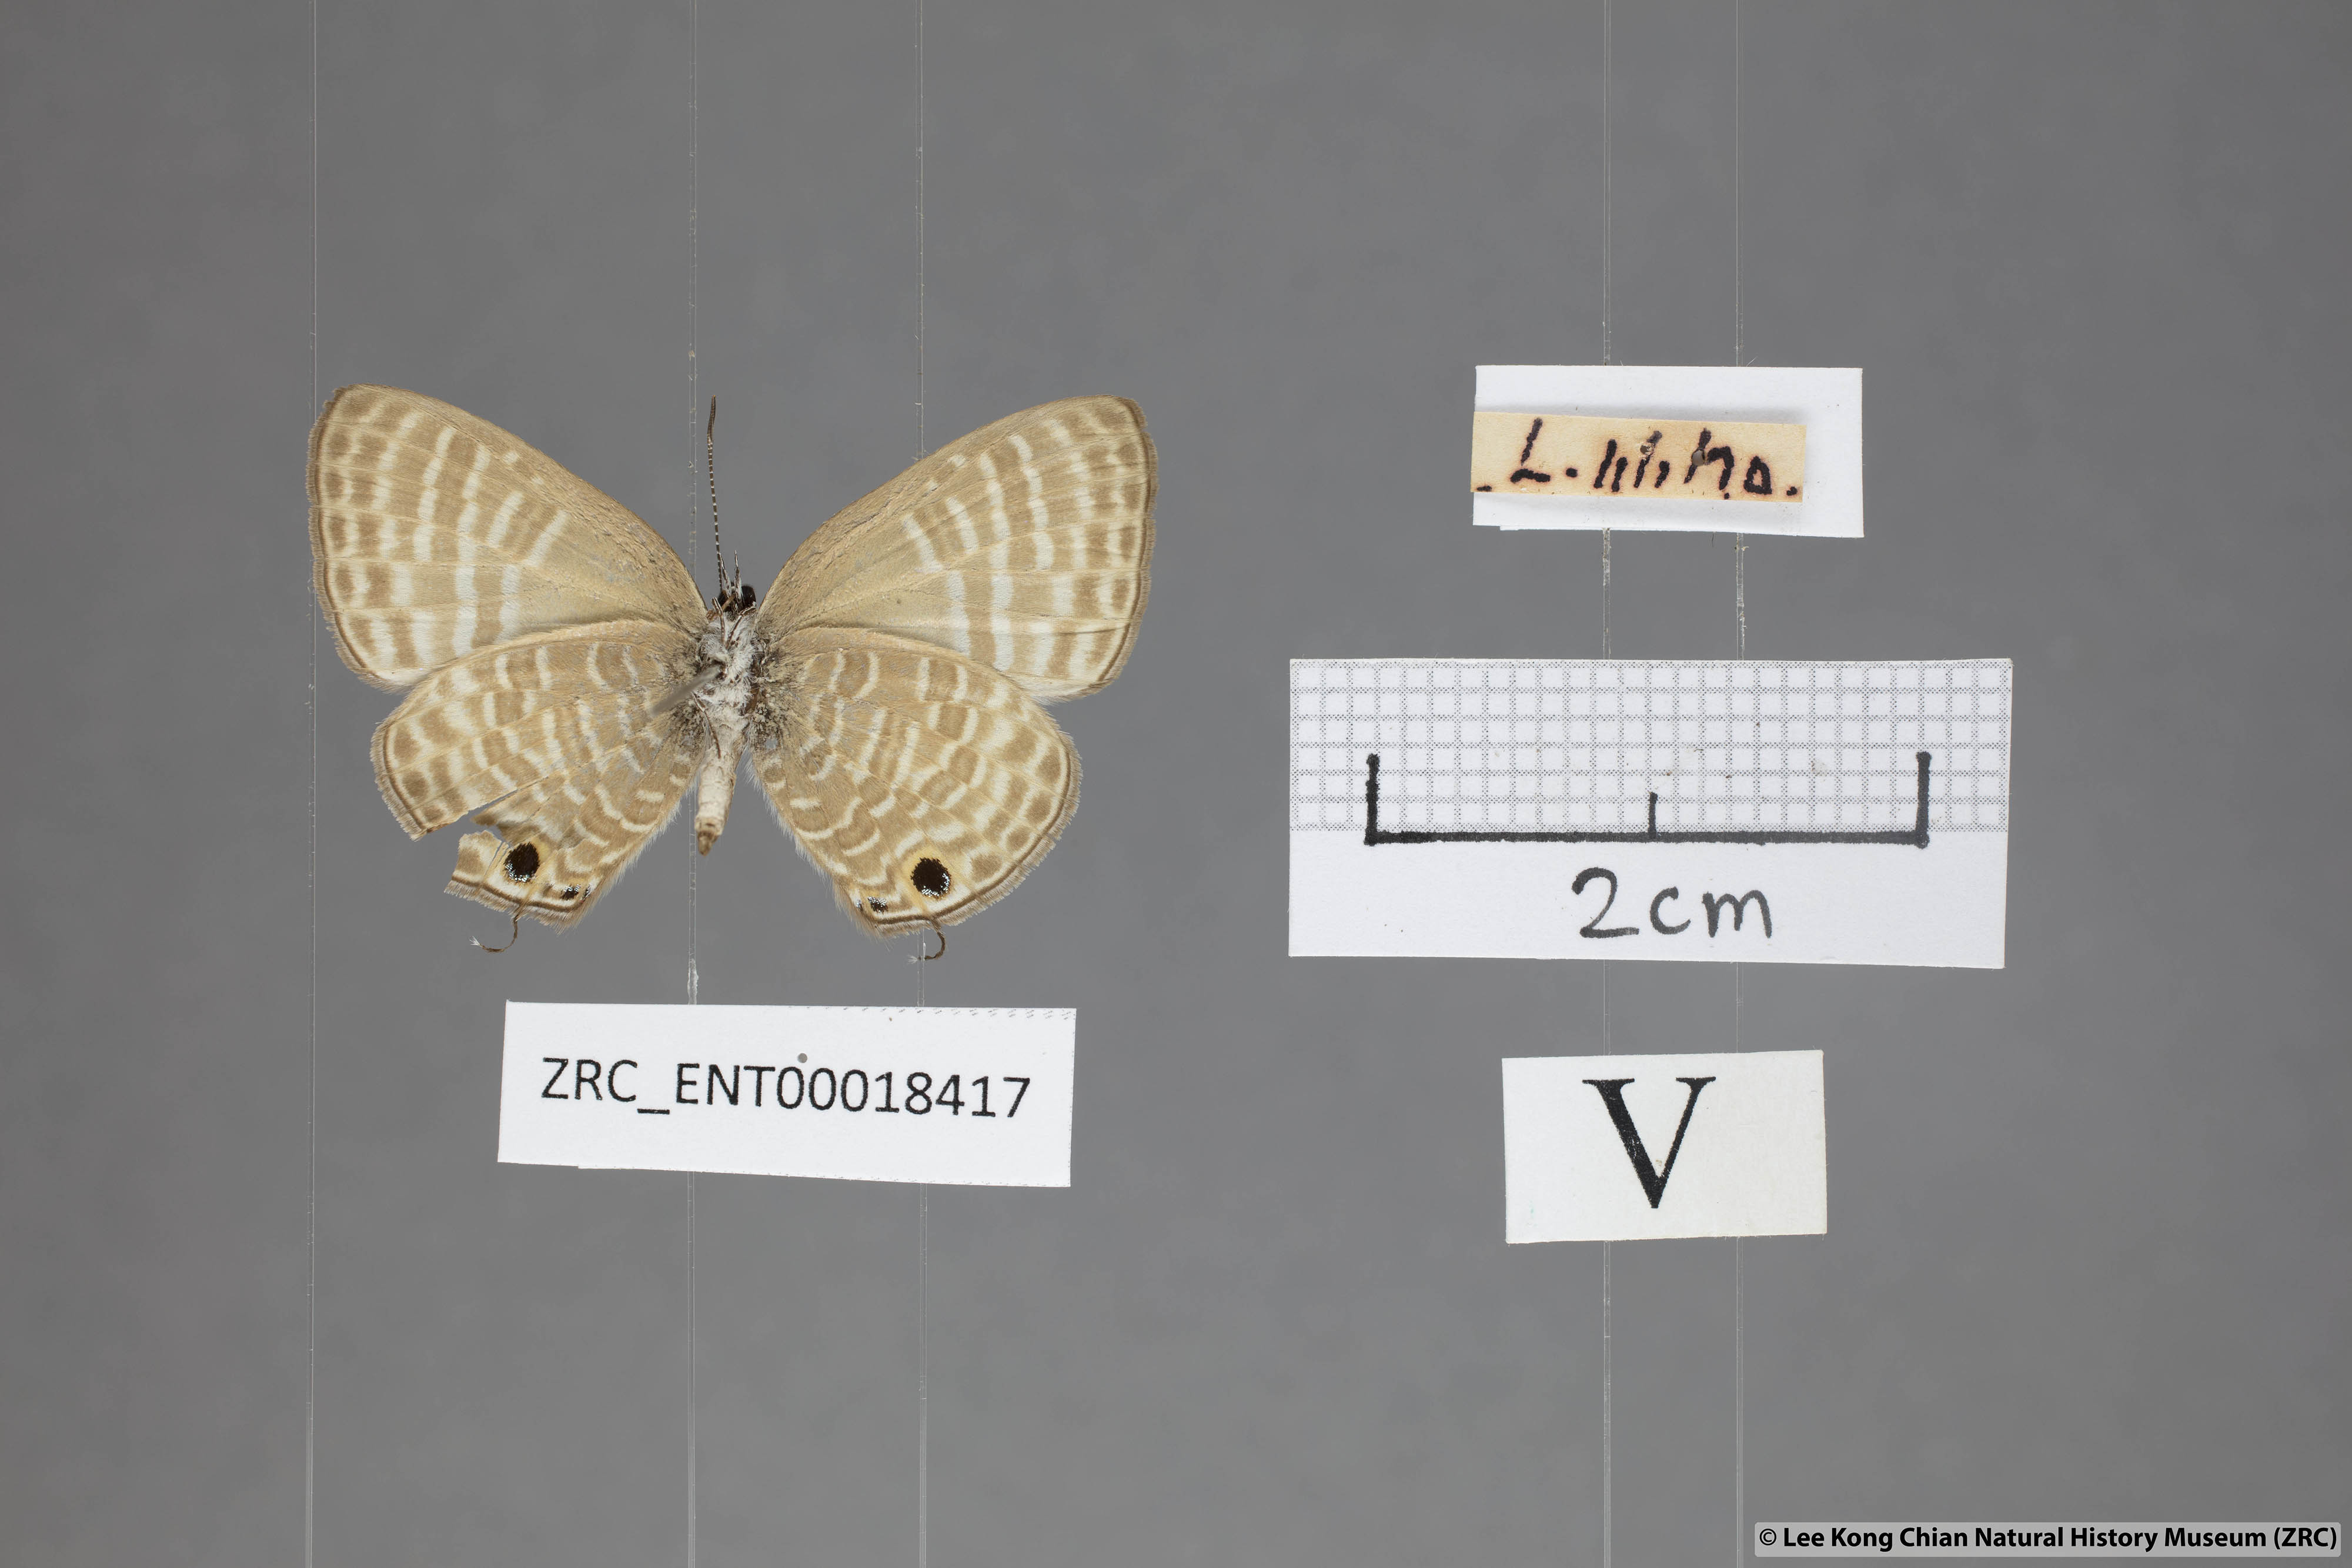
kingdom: Animalia
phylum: Arthropoda
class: Insecta
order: Lepidoptera
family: Lycaenidae
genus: Nacaduba
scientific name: Nacaduba pactolus
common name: Large fourline blue
